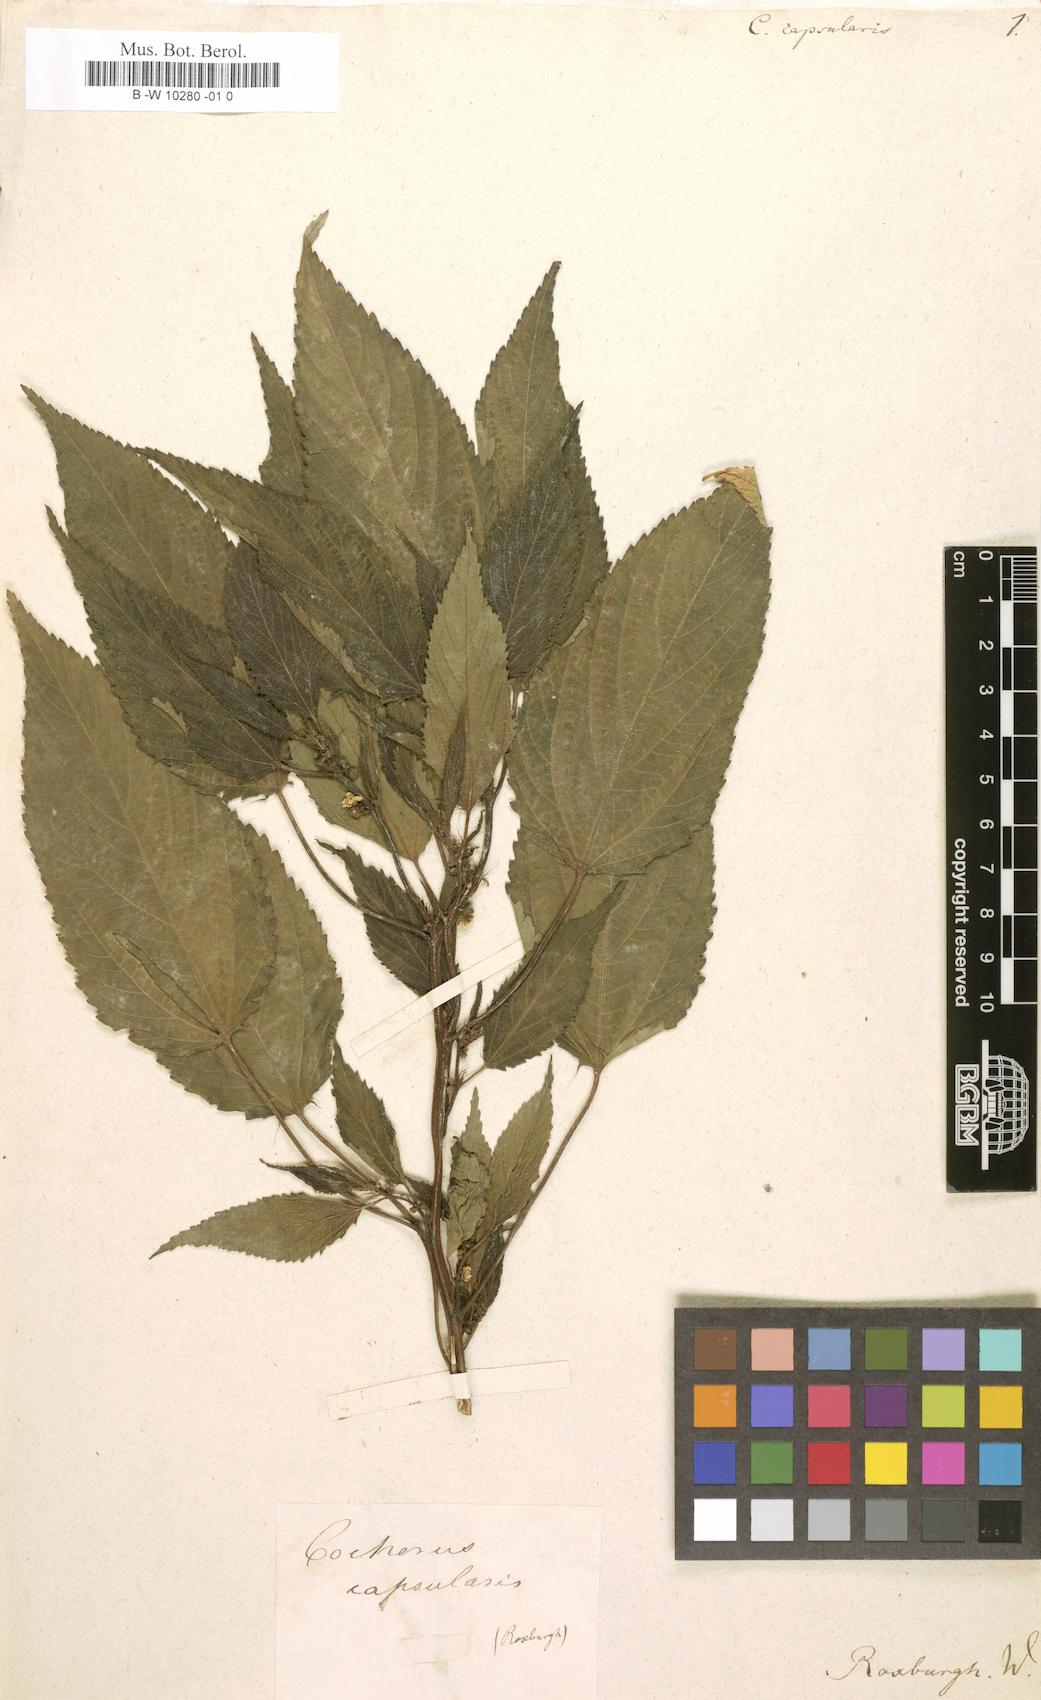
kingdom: Plantae
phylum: Tracheophyta
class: Magnoliopsida
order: Malvales
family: Malvaceae
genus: Corchorus
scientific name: Corchorus capsularis
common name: Jute
